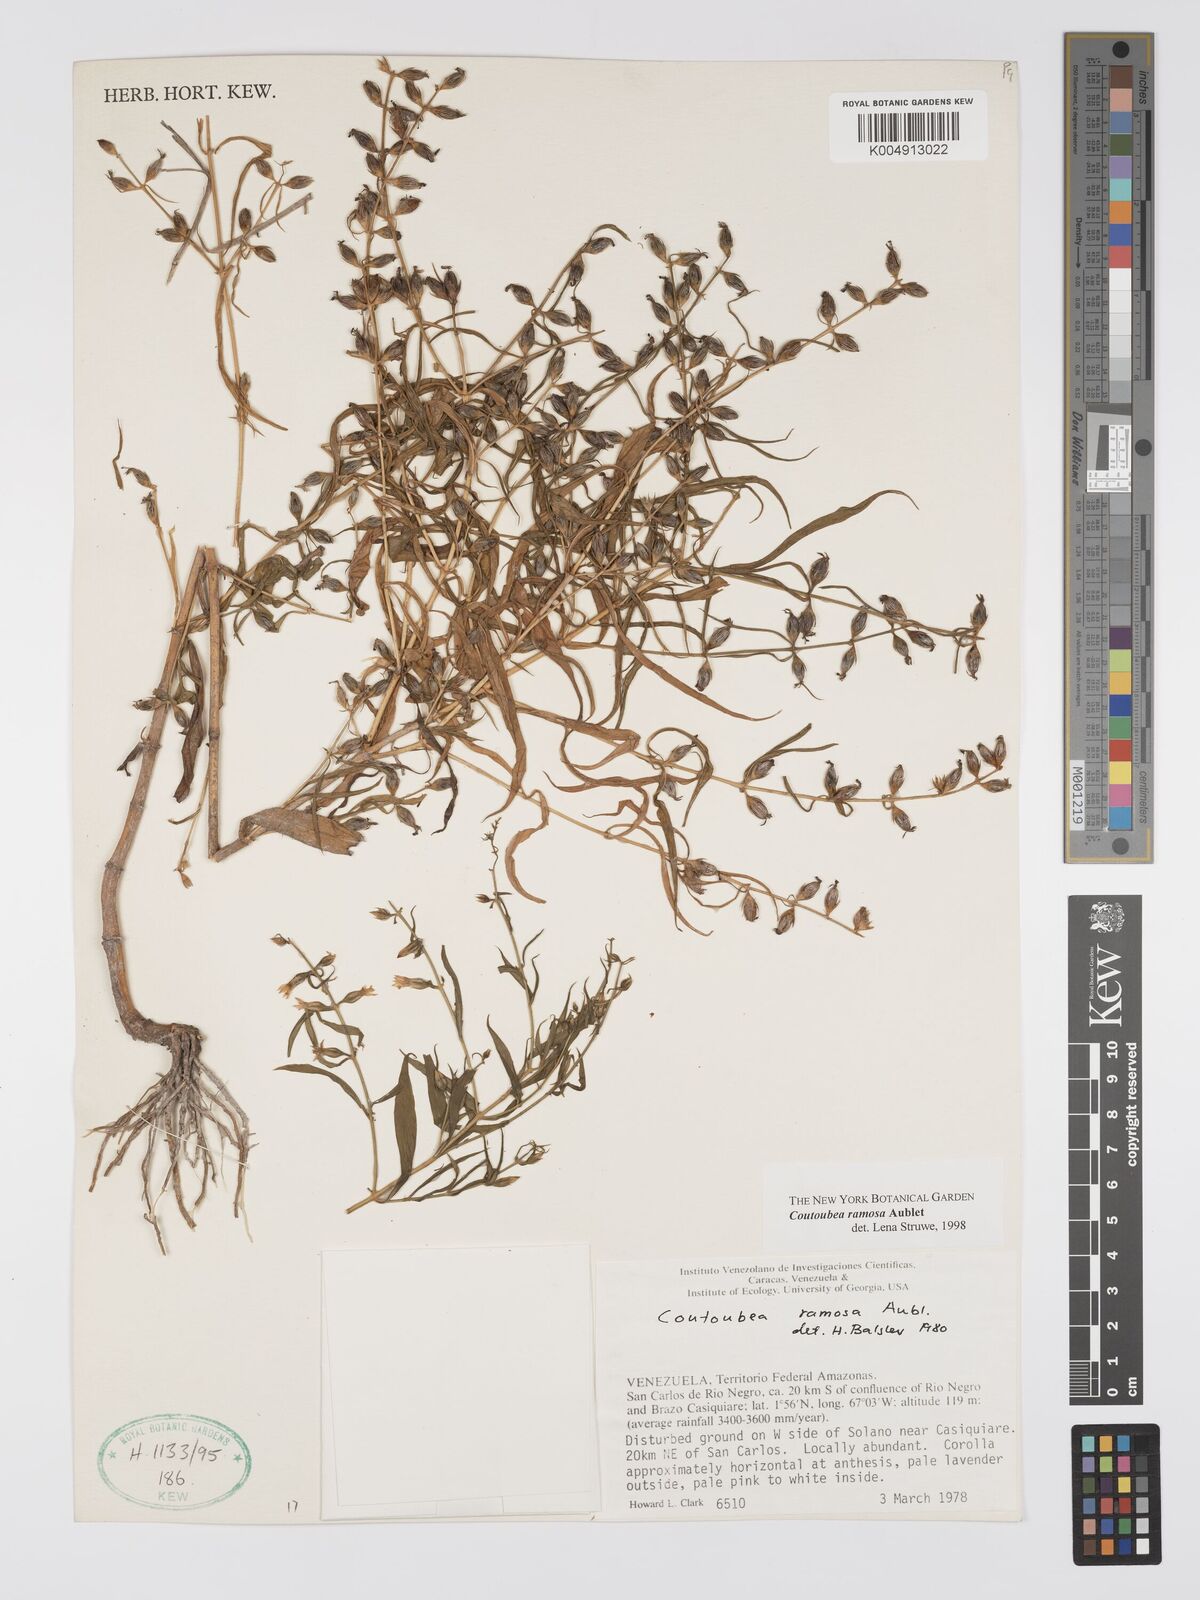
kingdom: Plantae
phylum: Tracheophyta
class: Magnoliopsida
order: Gentianales
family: Gentianaceae
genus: Coutoubea
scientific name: Coutoubea ramosa
